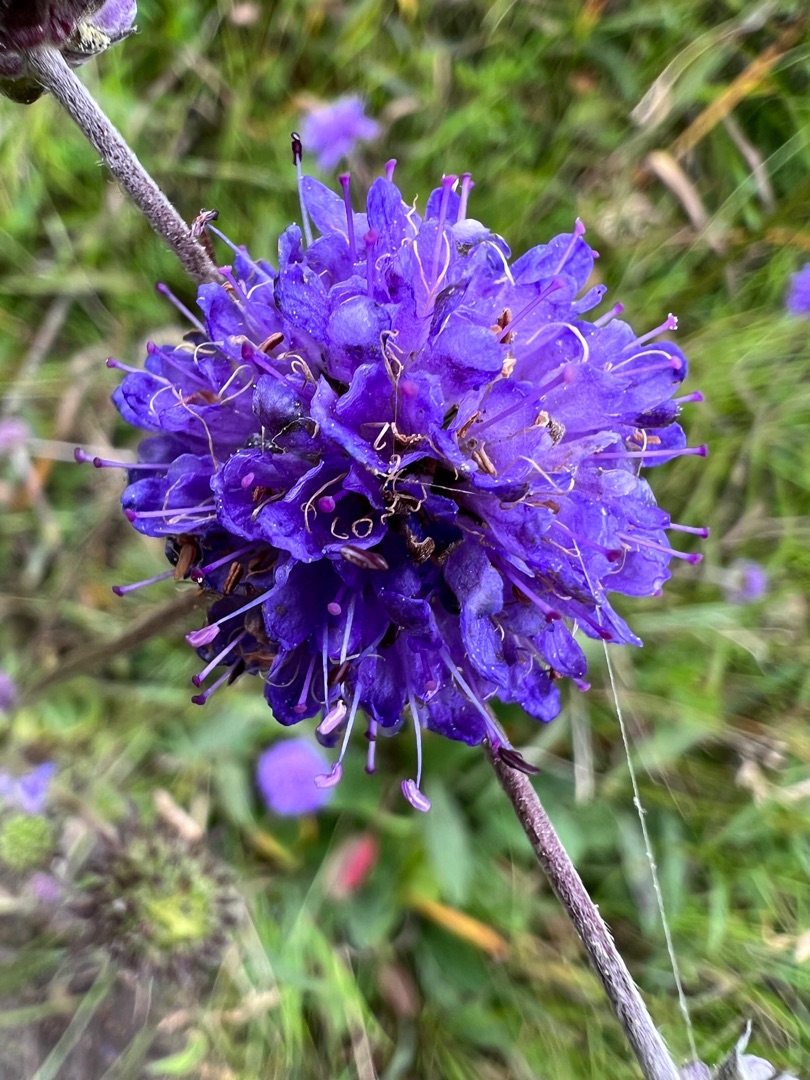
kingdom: Plantae
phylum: Tracheophyta
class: Magnoliopsida
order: Dipsacales
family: Caprifoliaceae
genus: Succisa
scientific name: Succisa pratensis
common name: Djævelsbid
